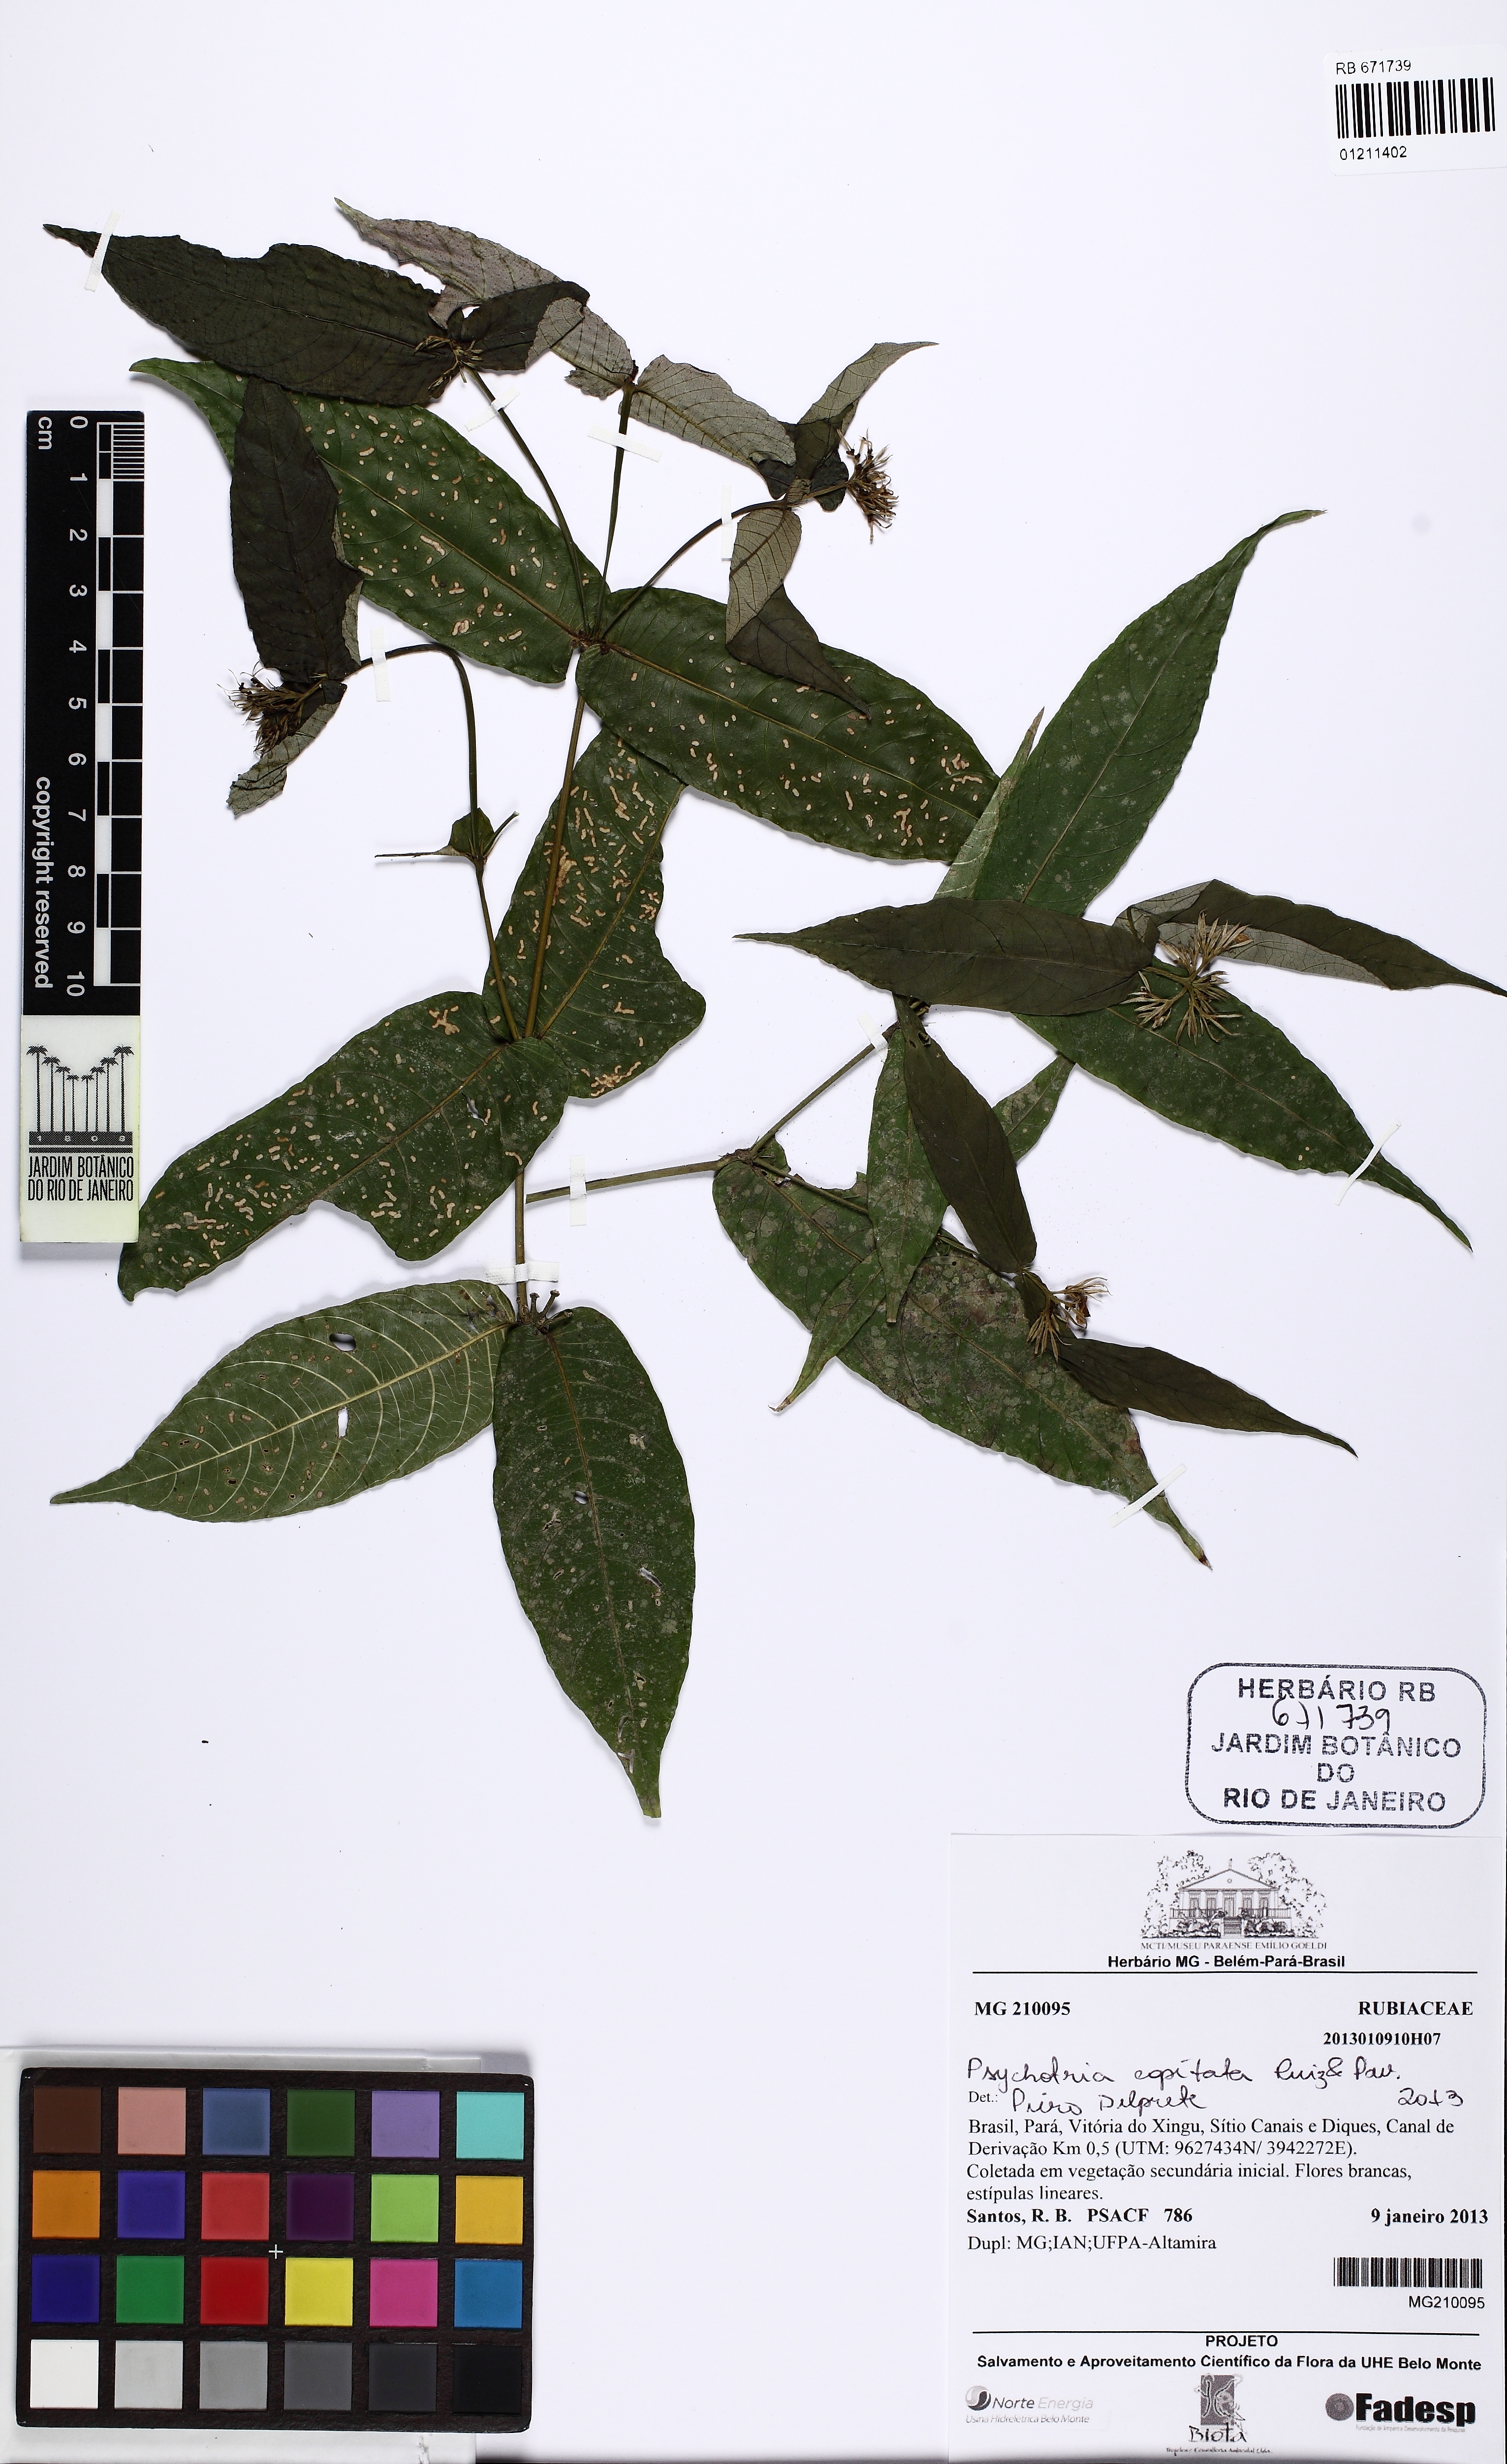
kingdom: Plantae
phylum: Tracheophyta
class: Magnoliopsida
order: Gentianales
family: Rubiaceae
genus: Palicourea
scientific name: Palicourea violacea
